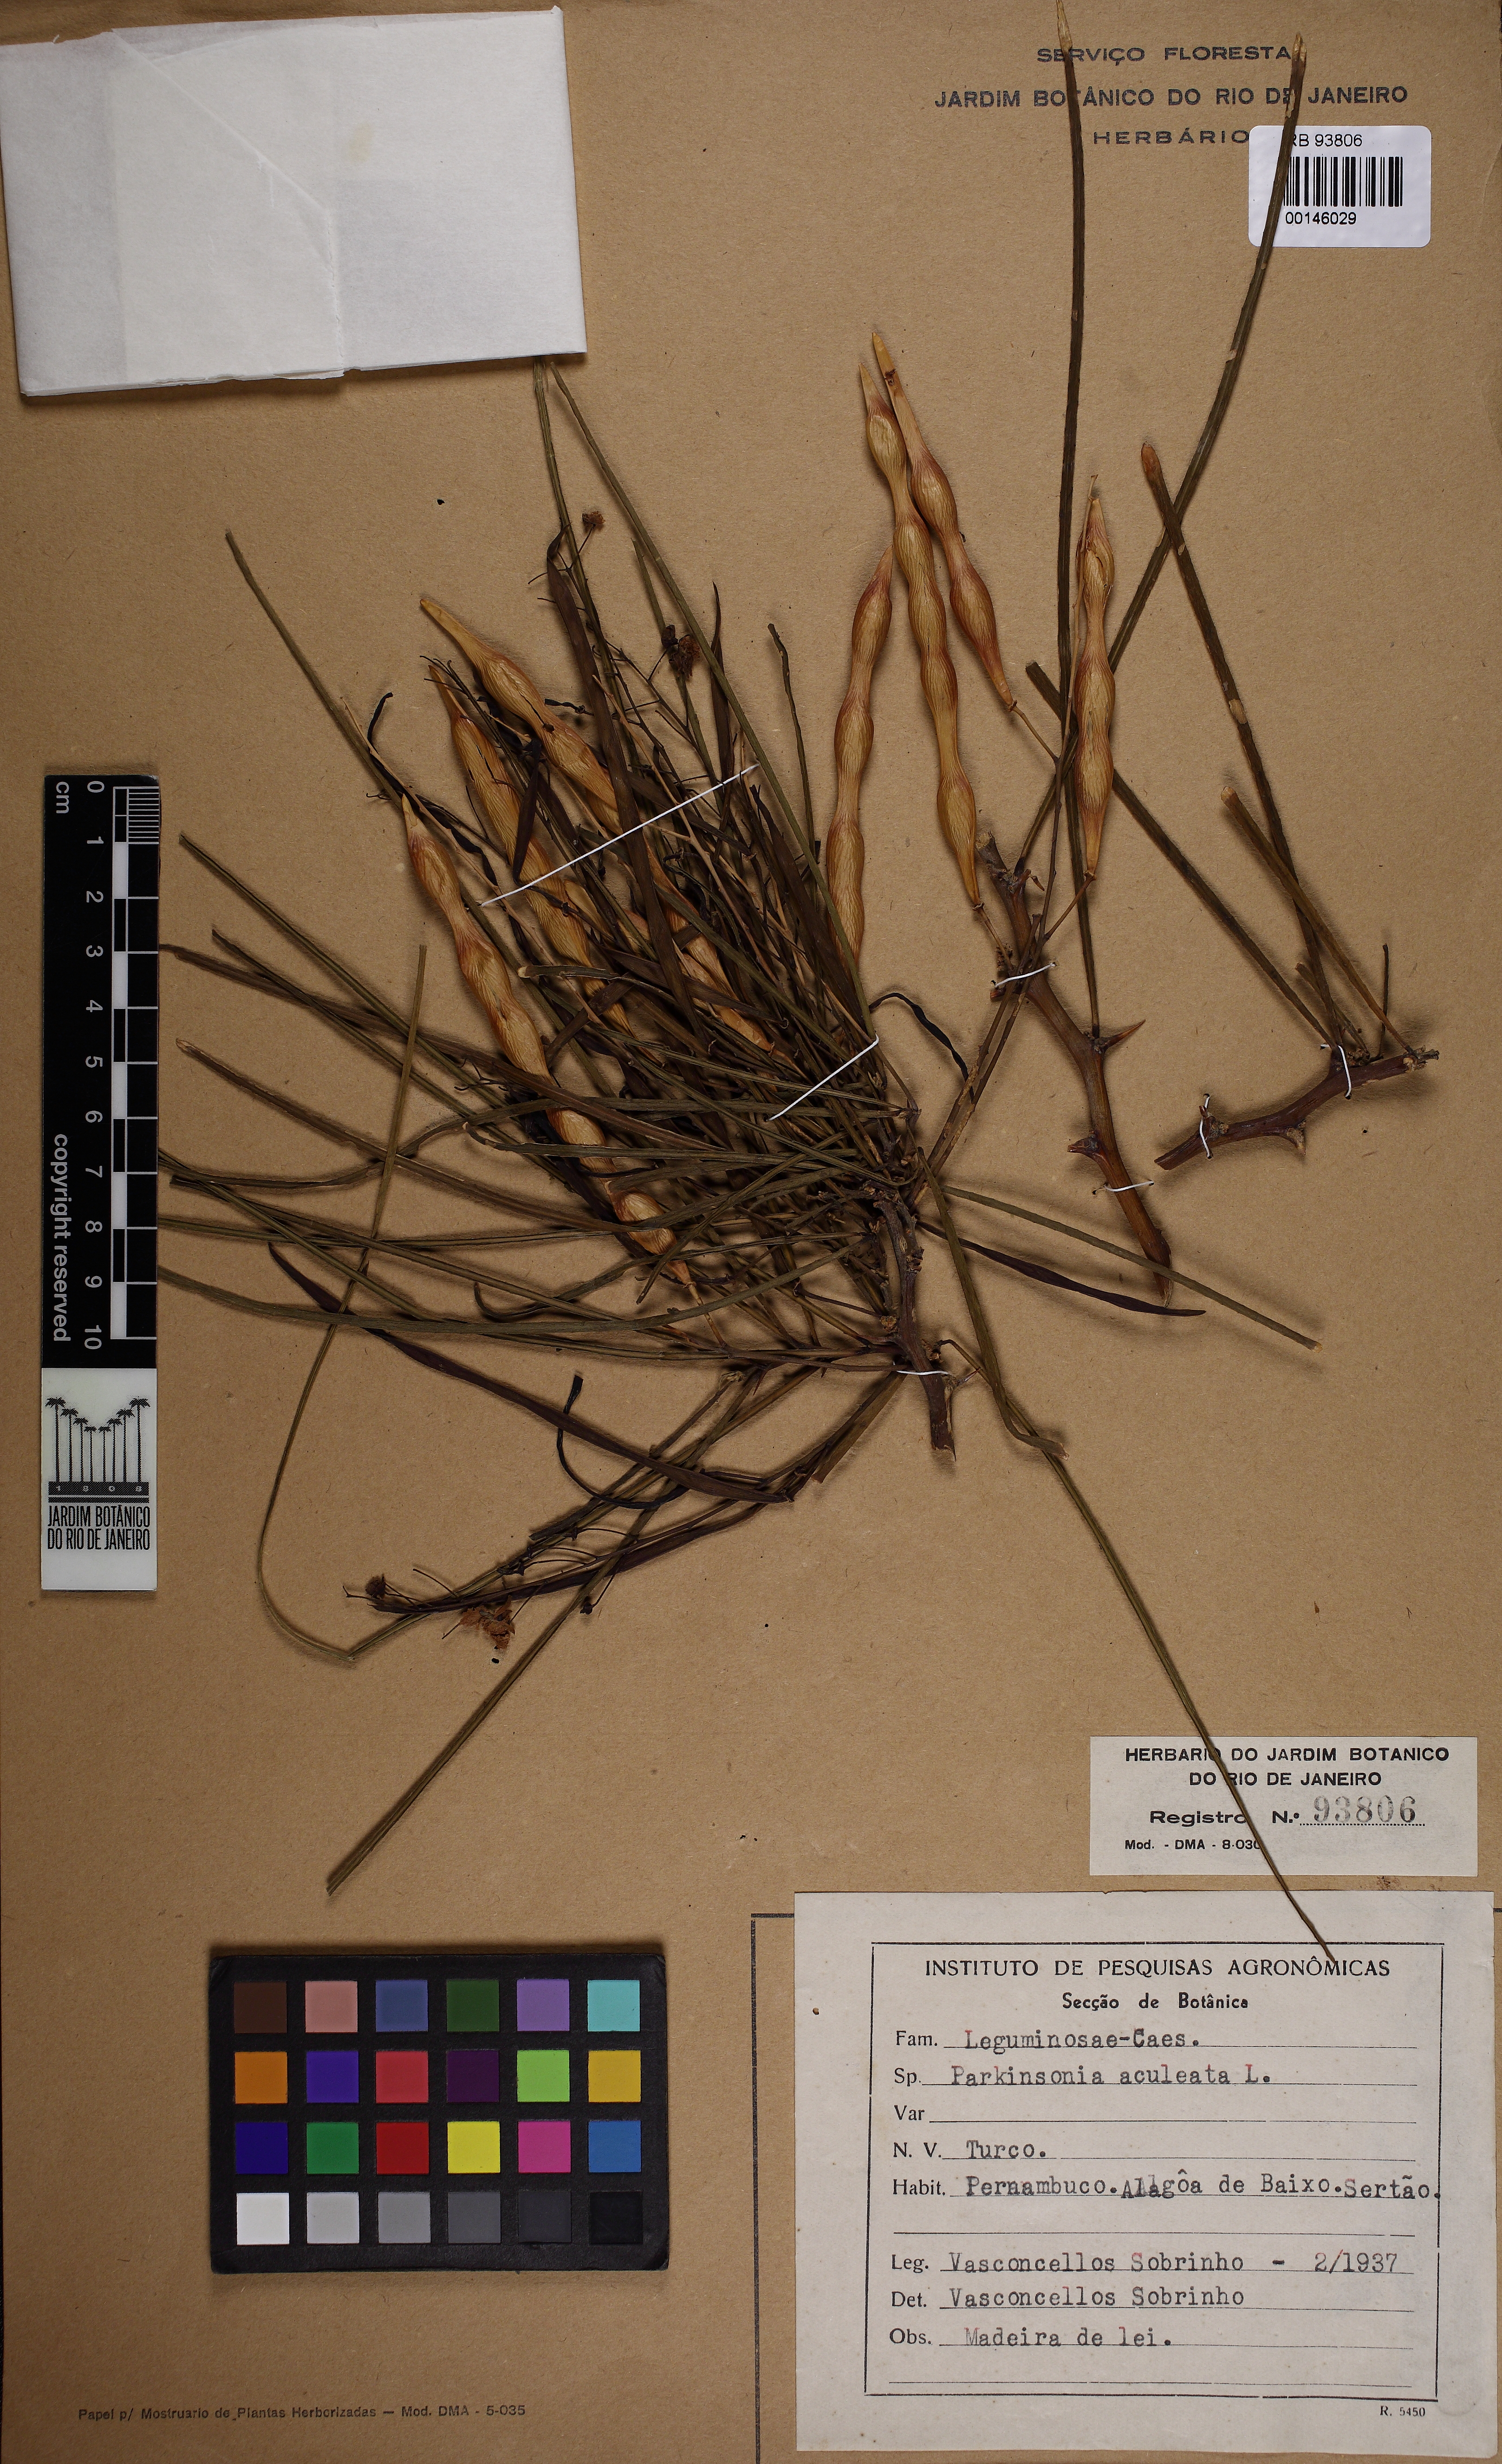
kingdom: Plantae
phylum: Tracheophyta
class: Magnoliopsida
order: Fabales
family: Fabaceae
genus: Parkinsonia
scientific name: Parkinsonia aculeata
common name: Jerusalem thorn
